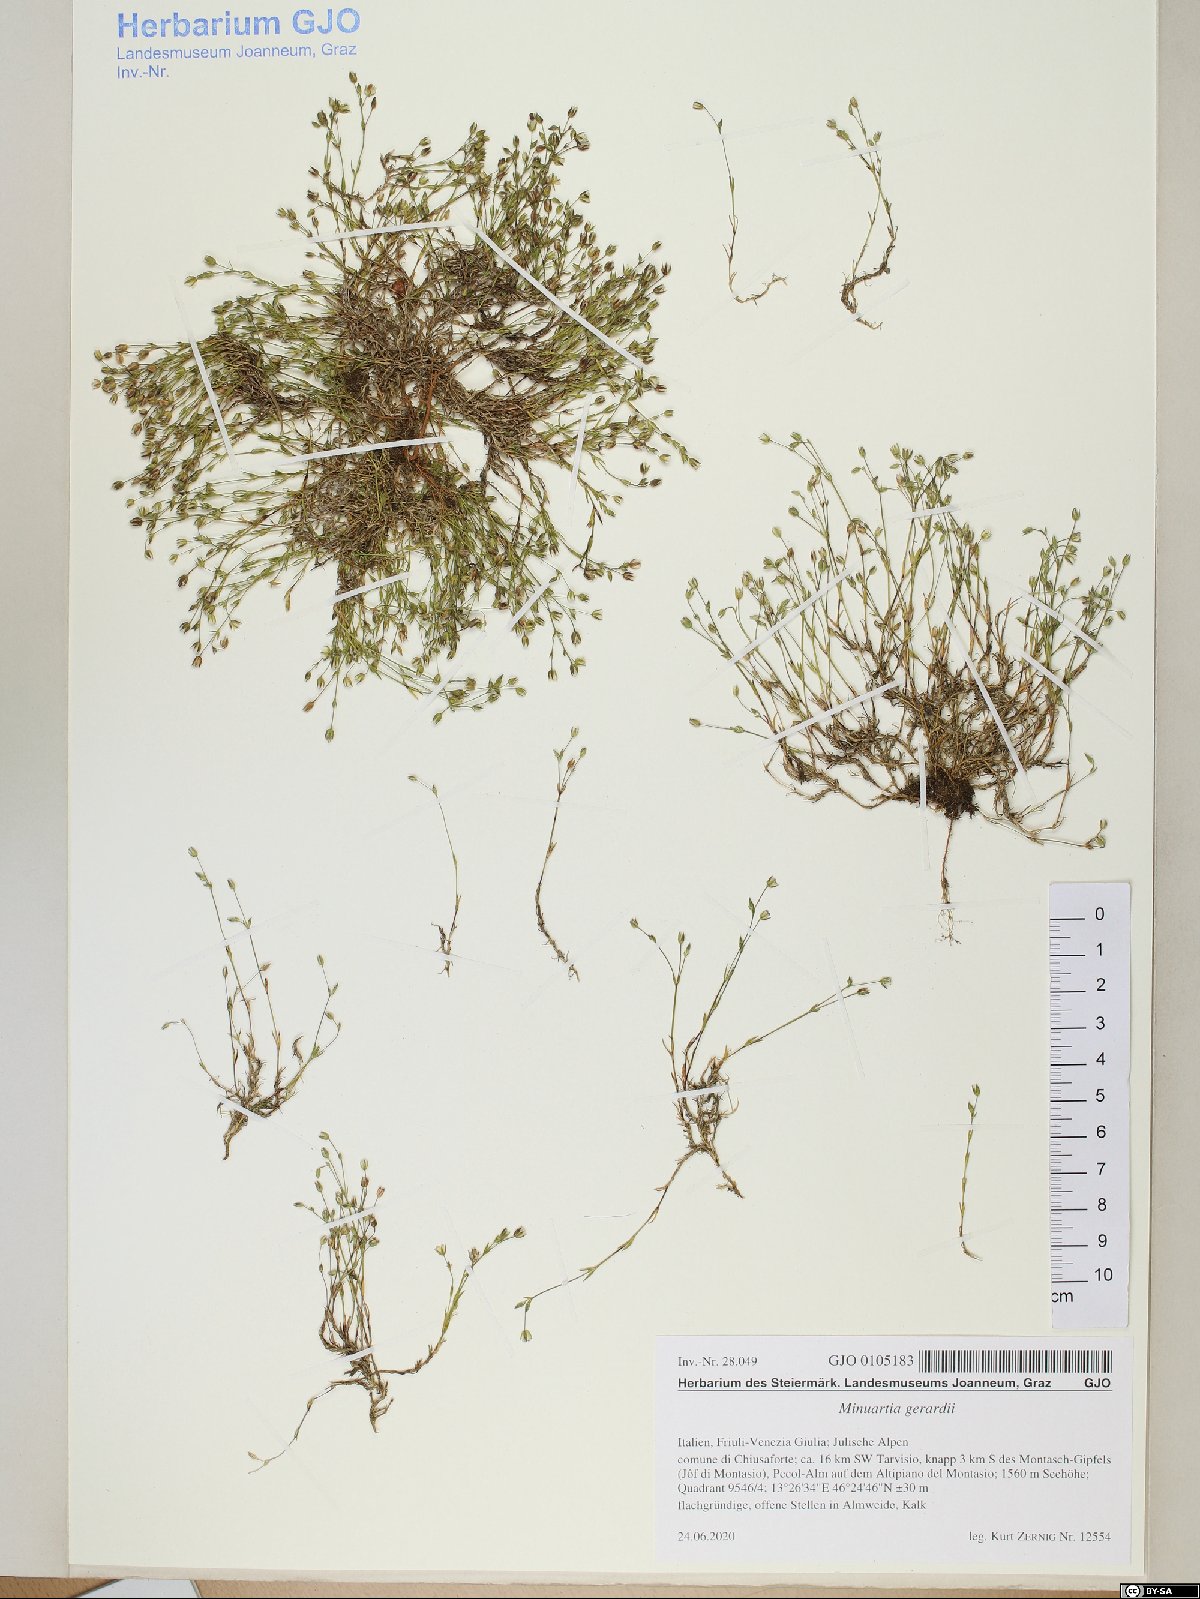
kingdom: Plantae
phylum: Tracheophyta
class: Magnoliopsida
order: Caryophyllales
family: Caryophyllaceae
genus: Sabulina
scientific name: Sabulina verna
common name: Spring sandwort
